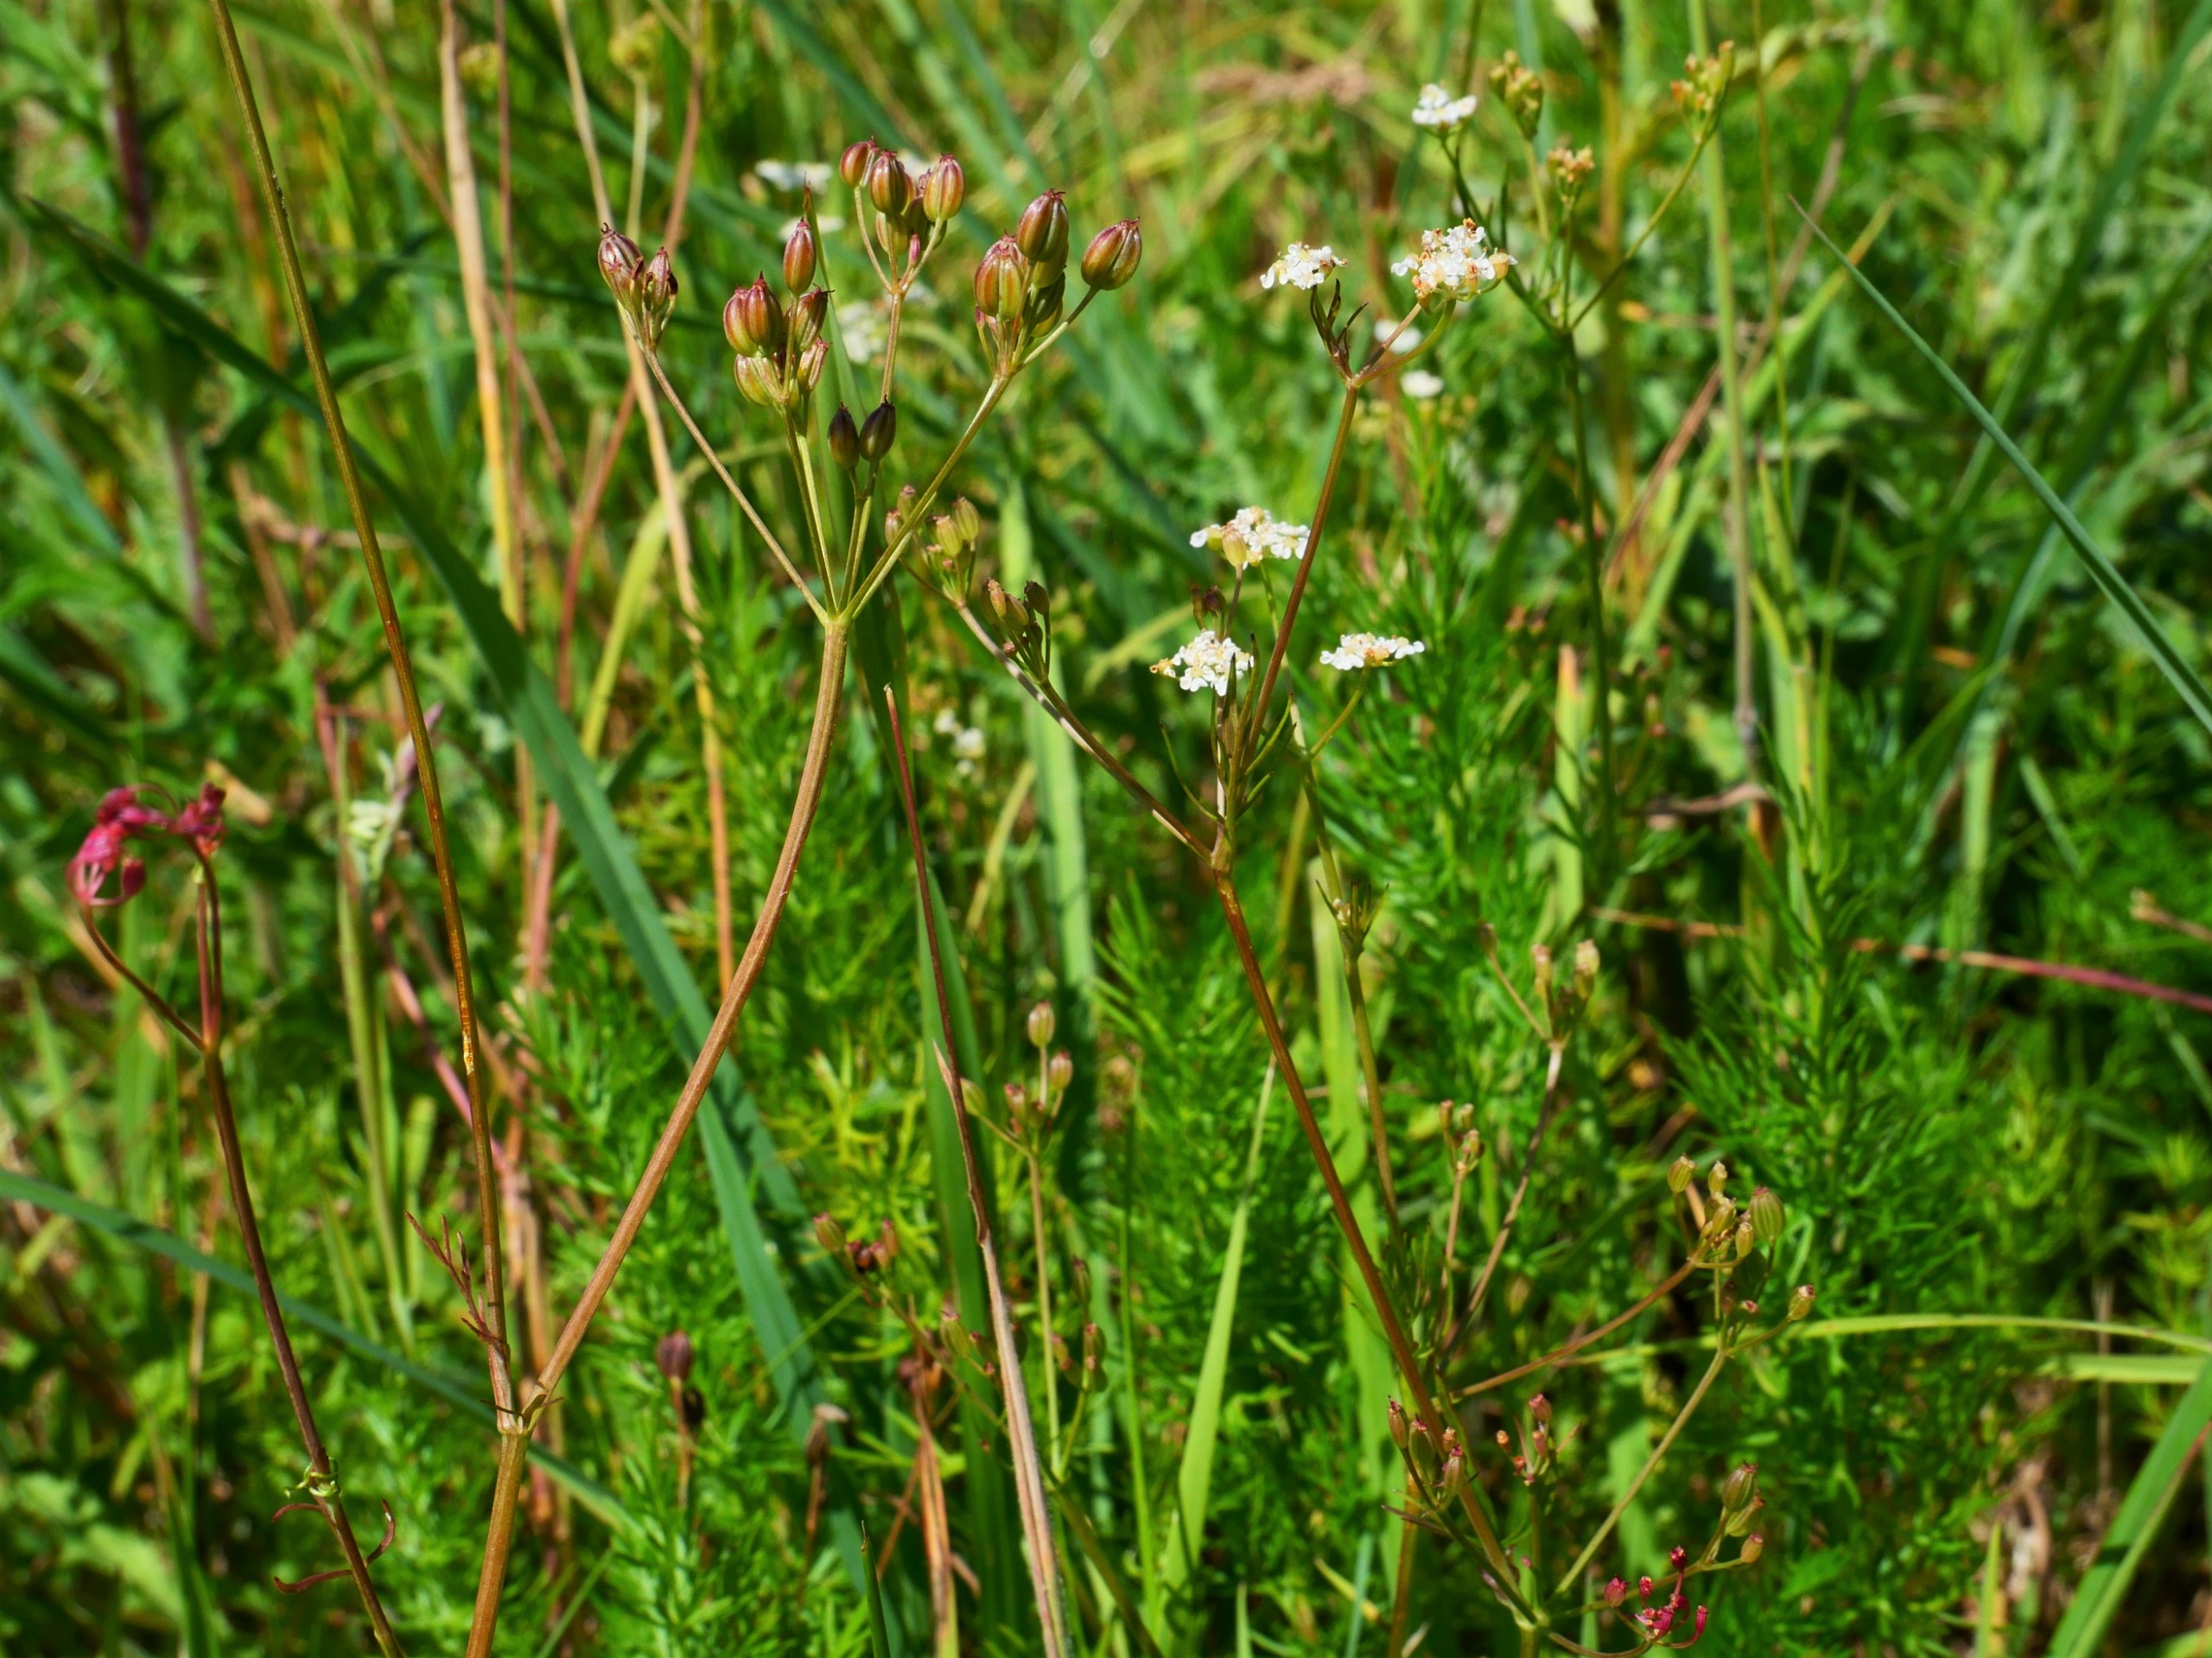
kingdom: Plantae
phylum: Tracheophyta
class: Magnoliopsida
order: Apiales
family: Apiaceae
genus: Carum
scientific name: Carum carvi
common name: Kommen
